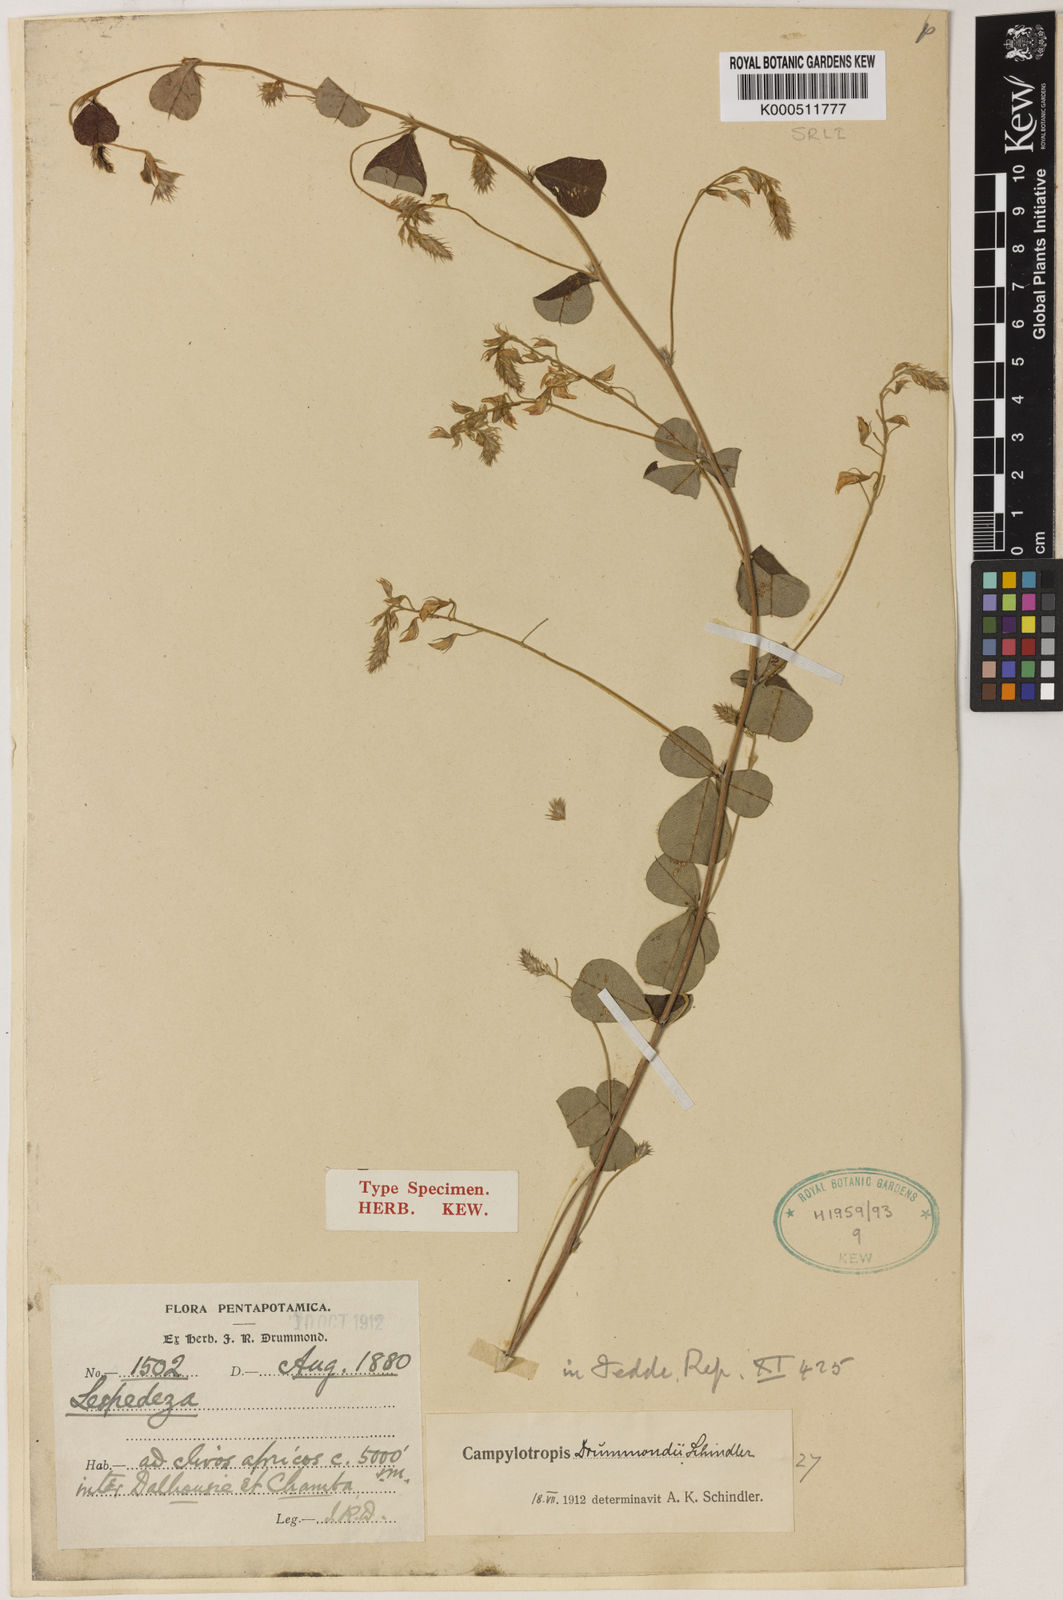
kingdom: Plantae
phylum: Tracheophyta
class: Magnoliopsida
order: Fabales
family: Fabaceae
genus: Campylotropis
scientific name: Campylotropis falconeri
